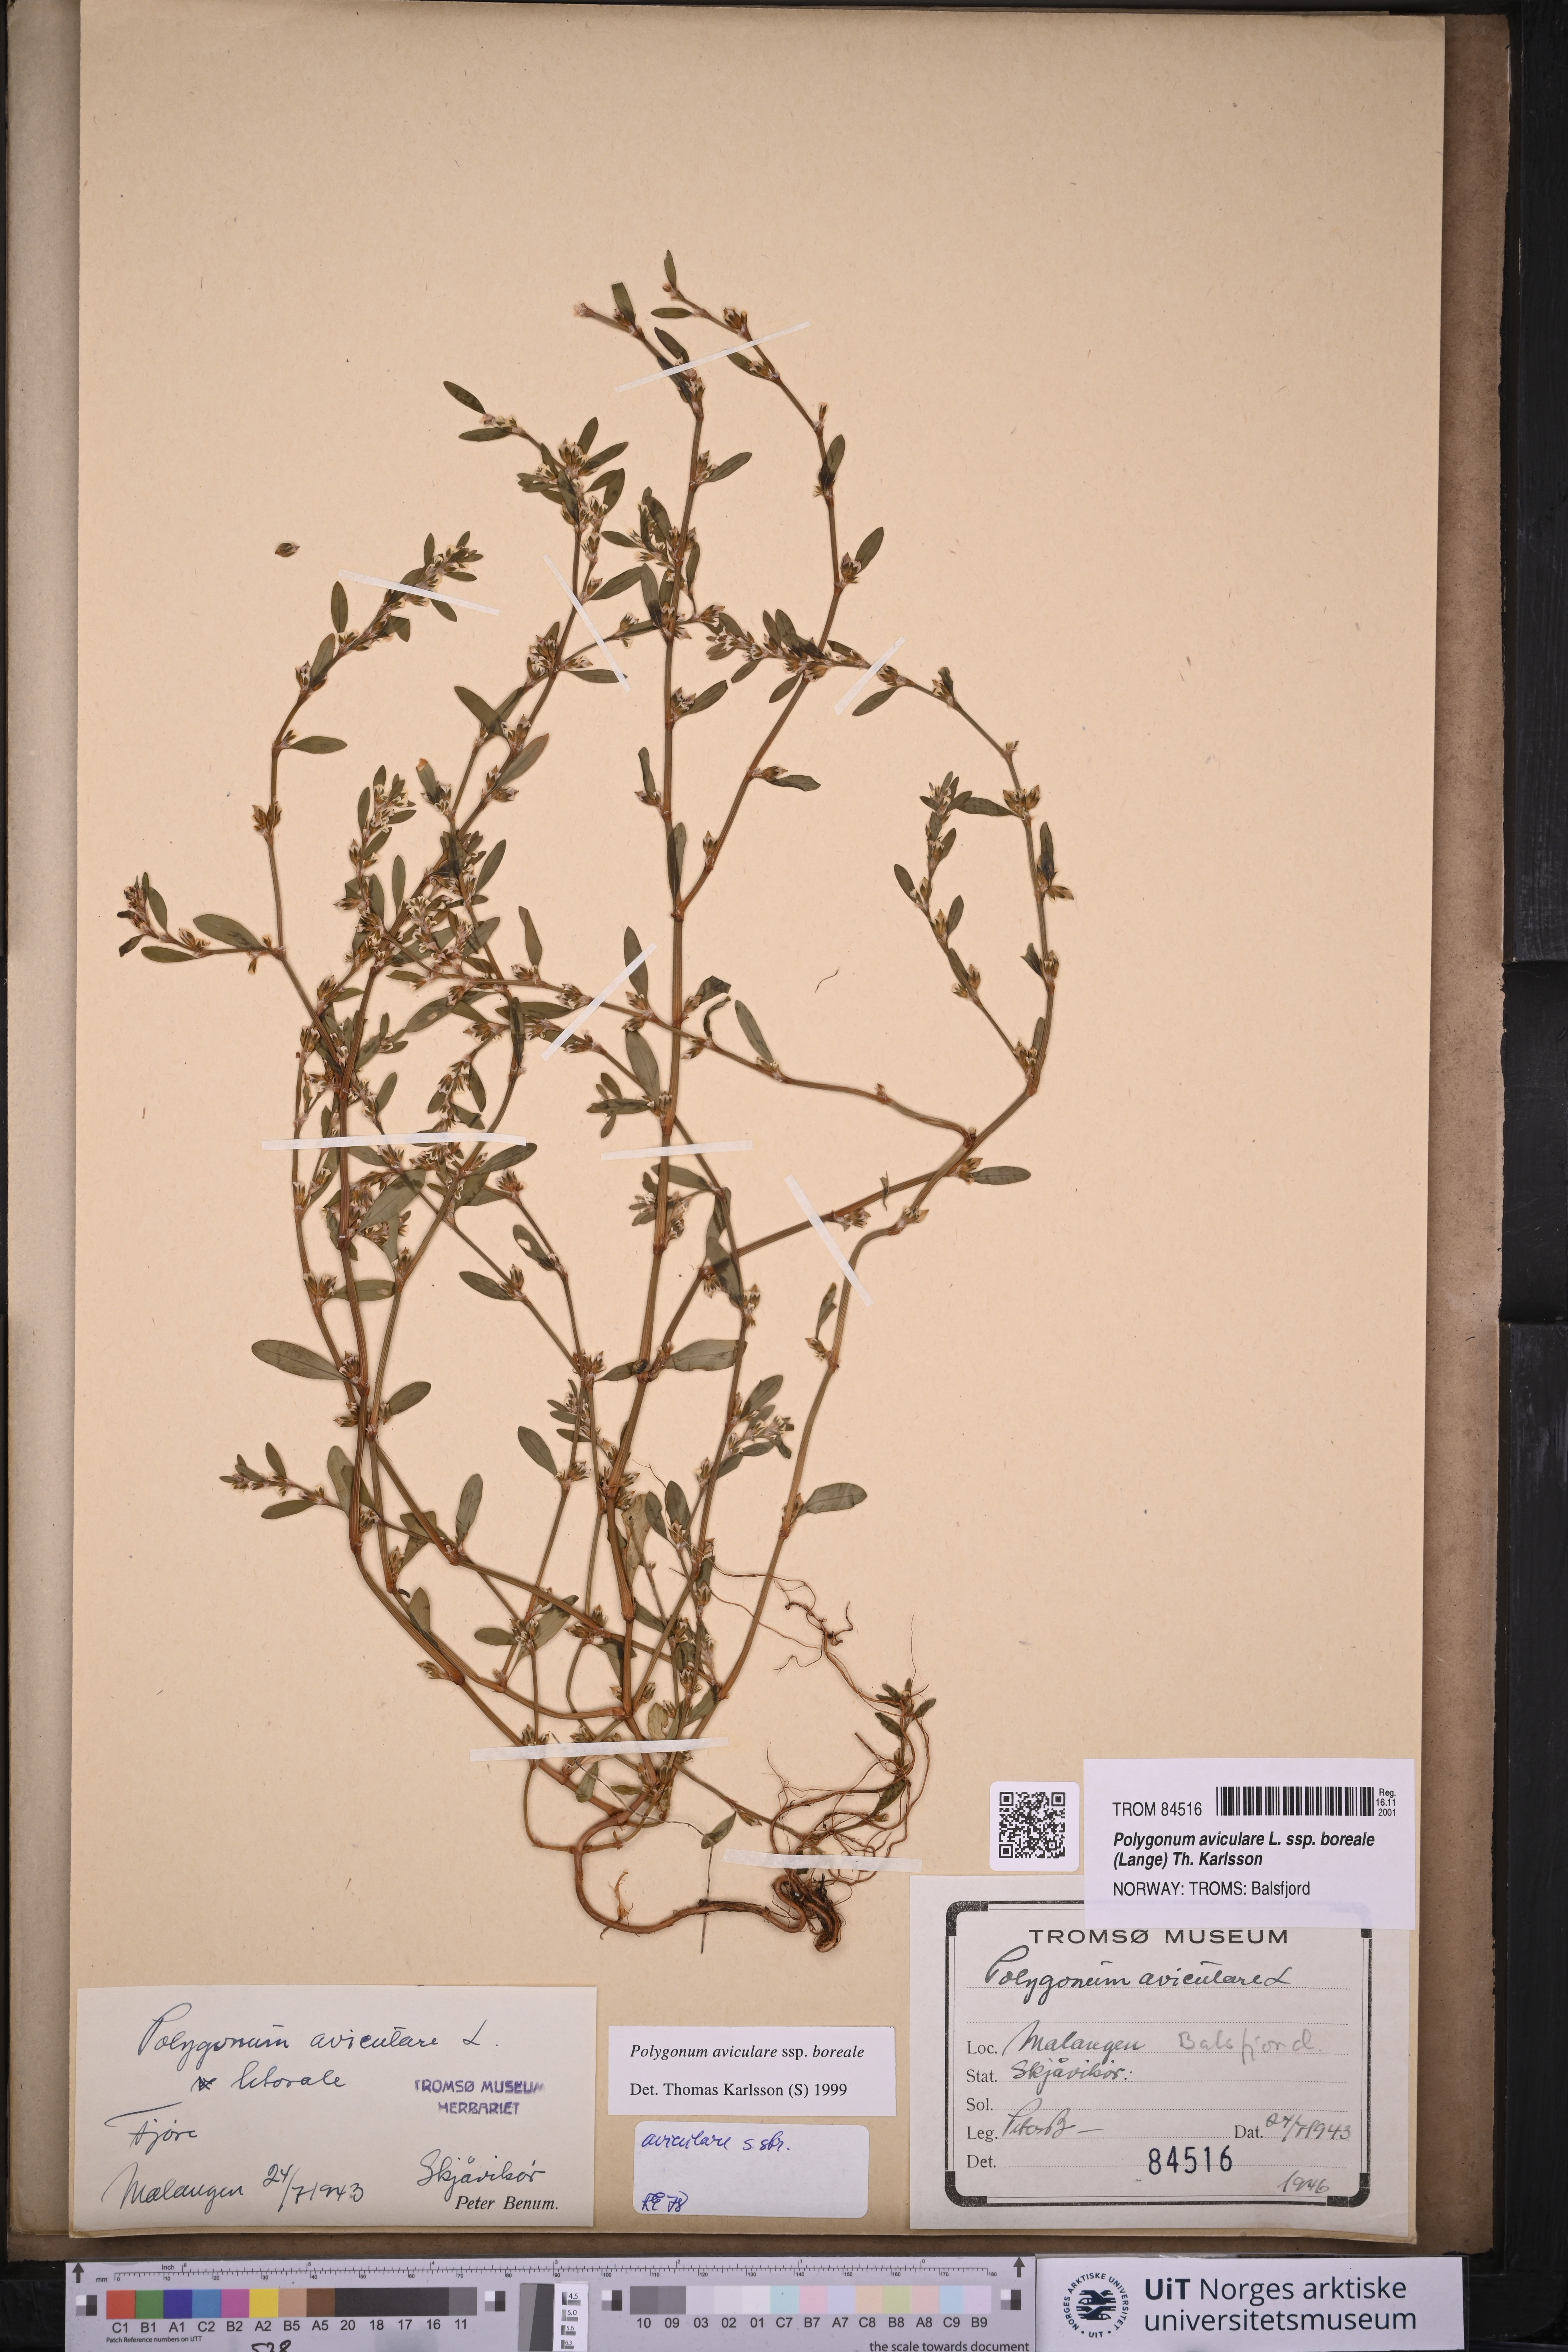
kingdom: Plantae
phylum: Tracheophyta
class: Magnoliopsida
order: Caryophyllales
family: Polygonaceae
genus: Polygonum
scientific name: Polygonum boreale
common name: Northern knotgrass
